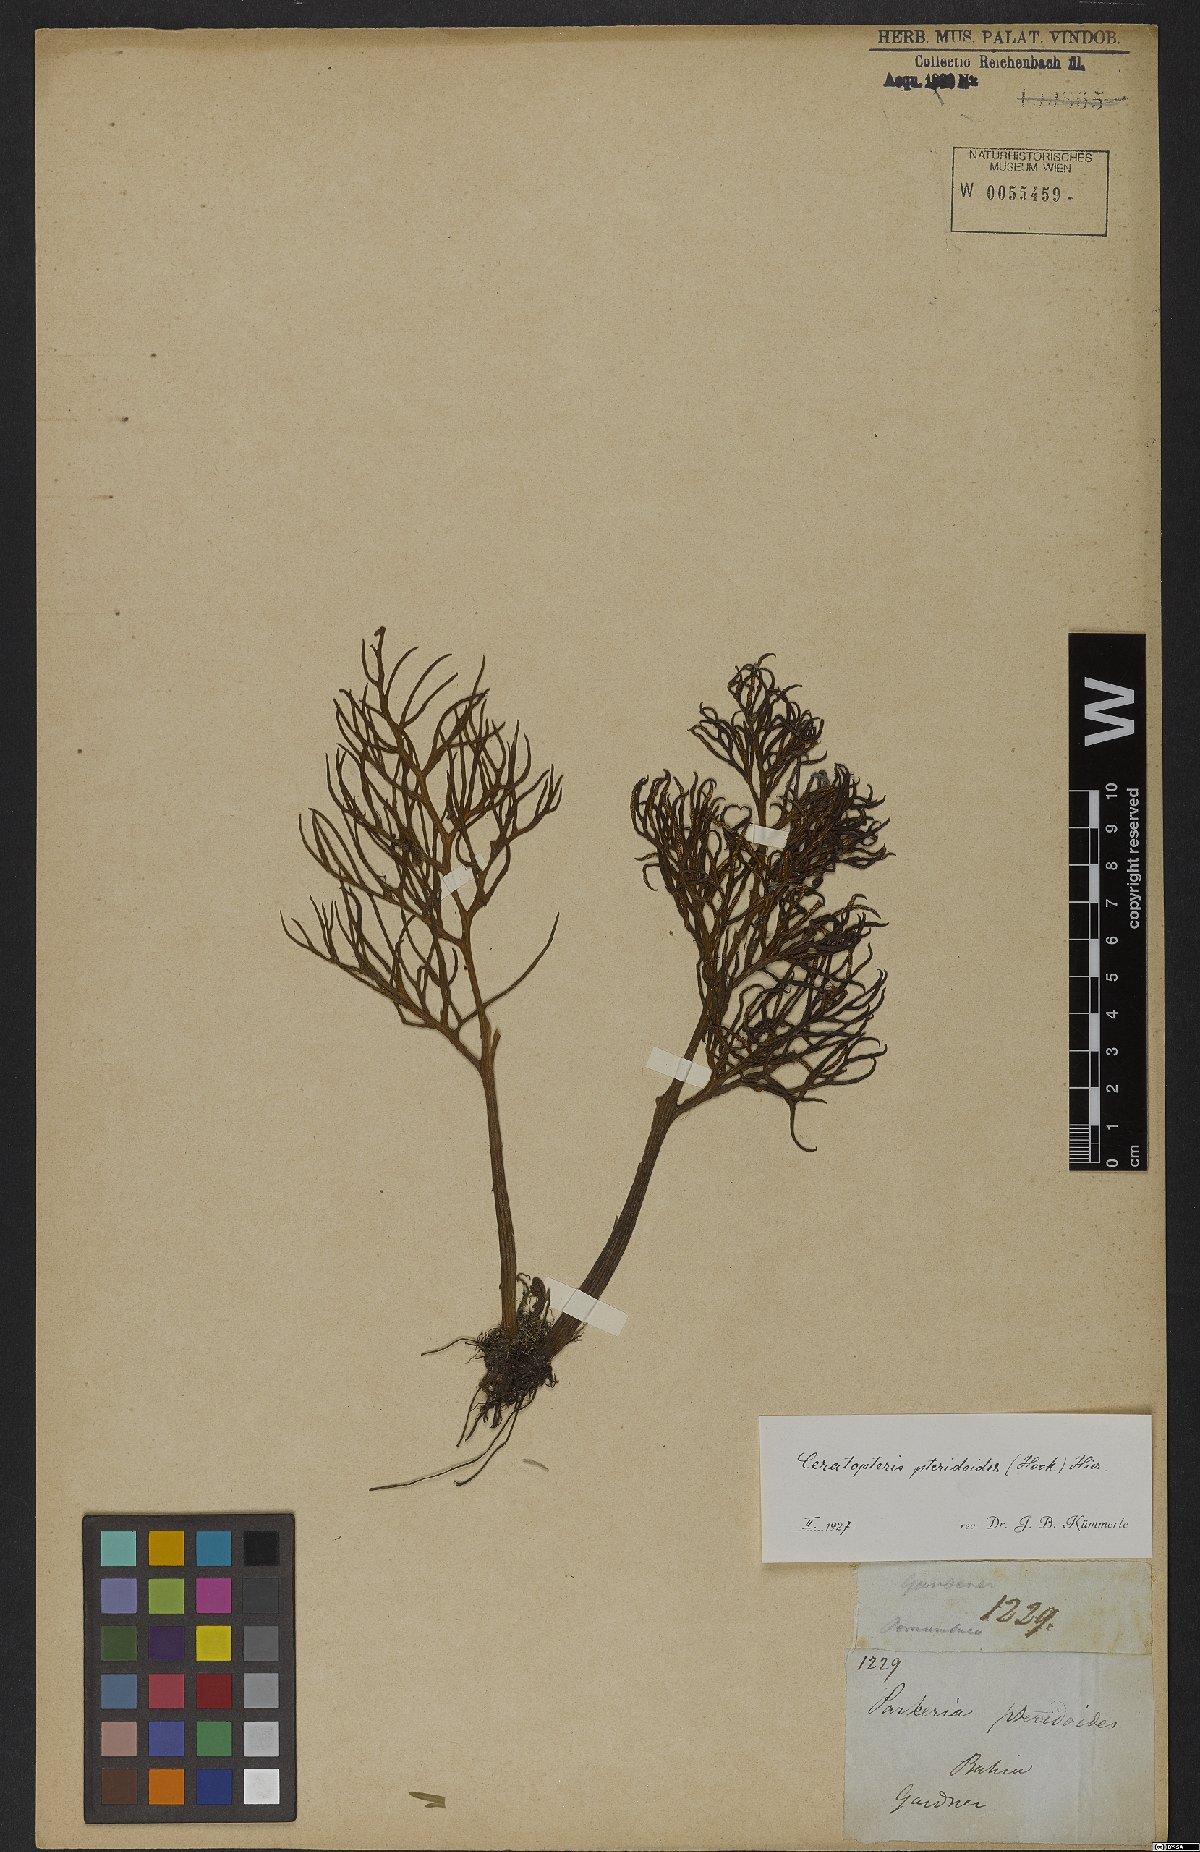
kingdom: Plantae
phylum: Tracheophyta
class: Polypodiopsida
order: Polypodiales
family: Pteridaceae
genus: Ceratopteris
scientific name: Ceratopteris pteridoides
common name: Floating fern
